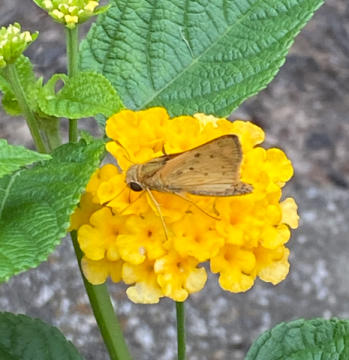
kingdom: Animalia
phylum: Arthropoda
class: Insecta
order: Lepidoptera
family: Hesperiidae
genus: Hylephila
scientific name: Hylephila phyleus
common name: Fiery Skipper
